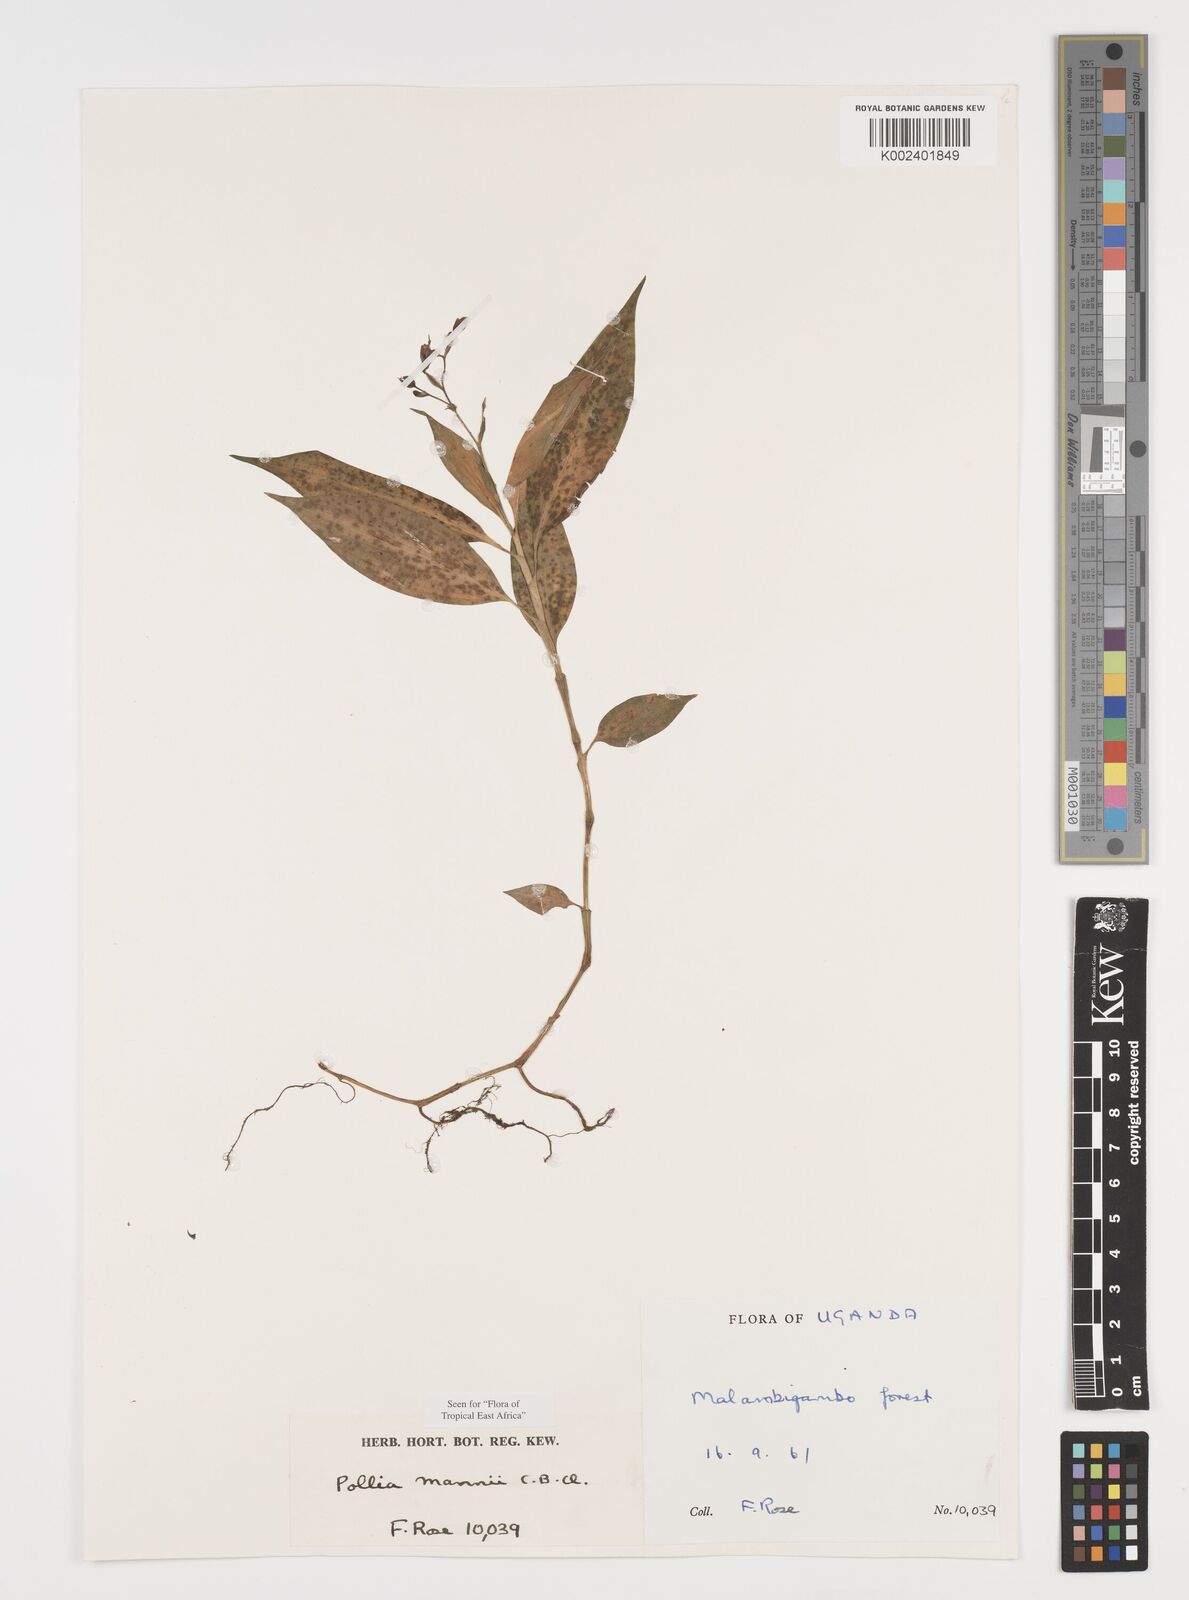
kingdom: Plantae
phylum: Tracheophyta
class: Liliopsida
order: Commelinales
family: Commelinaceae
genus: Pollia
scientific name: Pollia mannii
